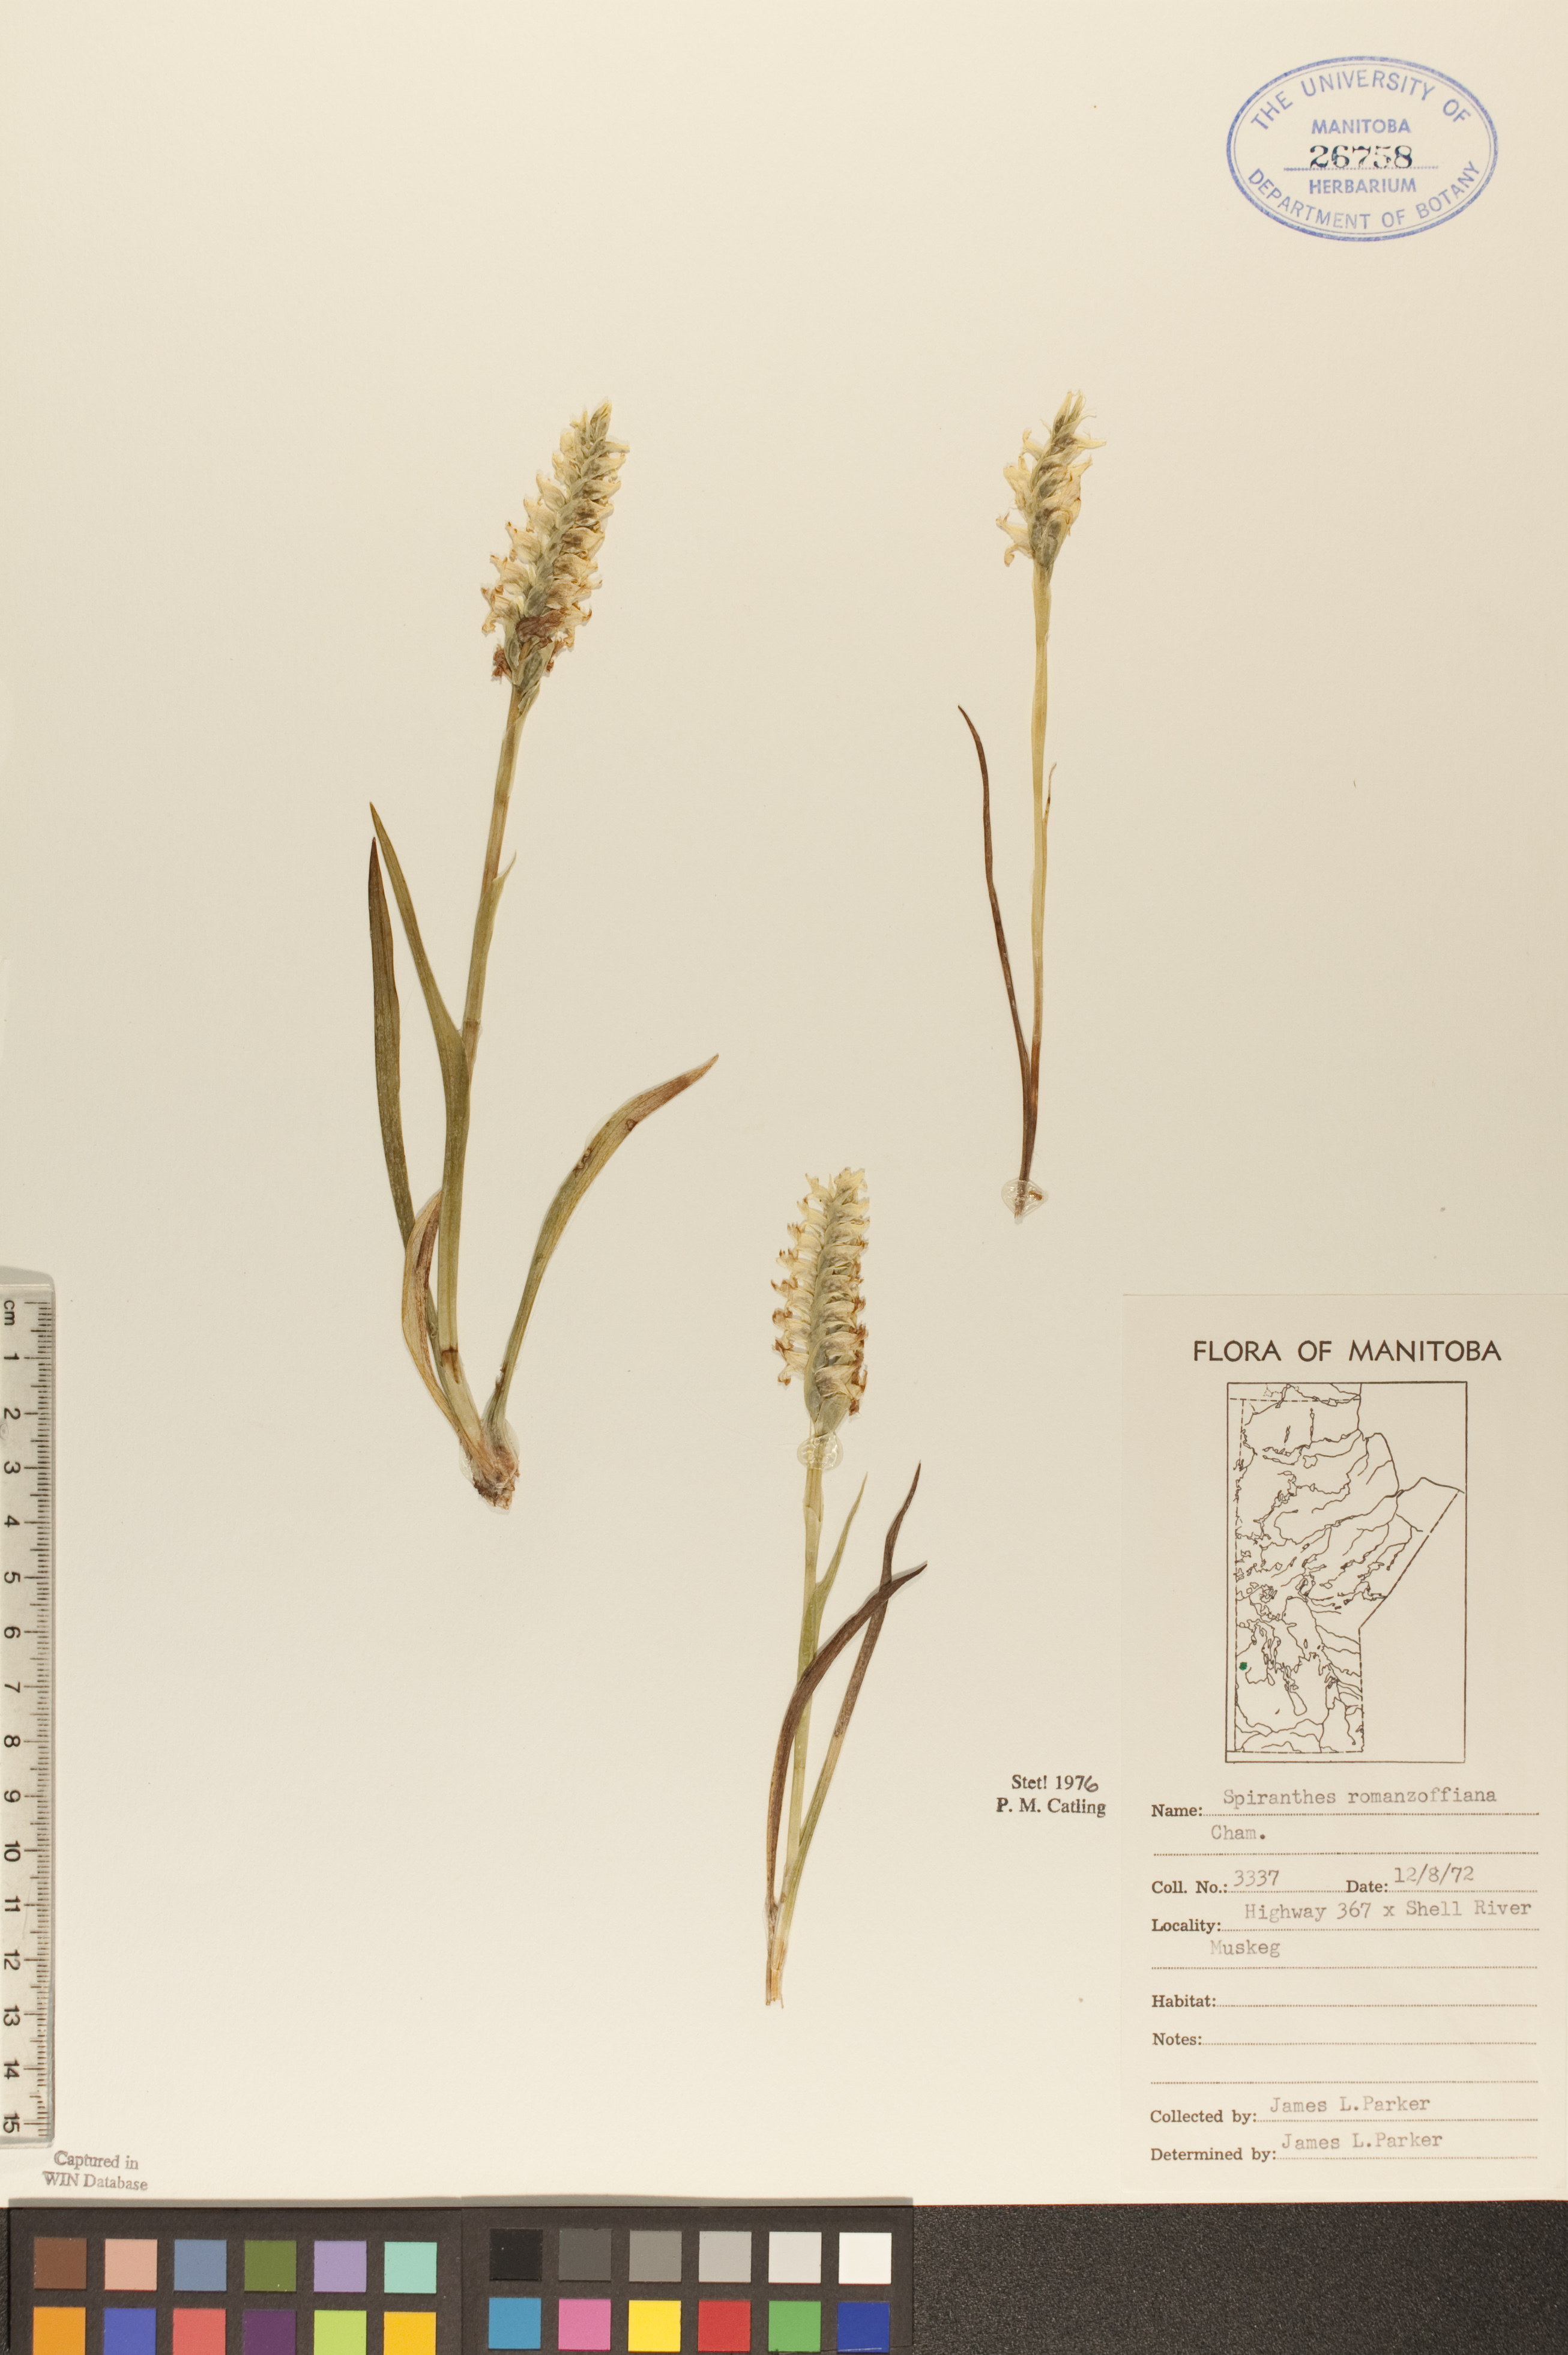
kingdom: Plantae
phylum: Tracheophyta
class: Liliopsida
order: Asparagales
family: Orchidaceae
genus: Spiranthes
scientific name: Spiranthes romanzoffiana
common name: Irish lady's-tresses
